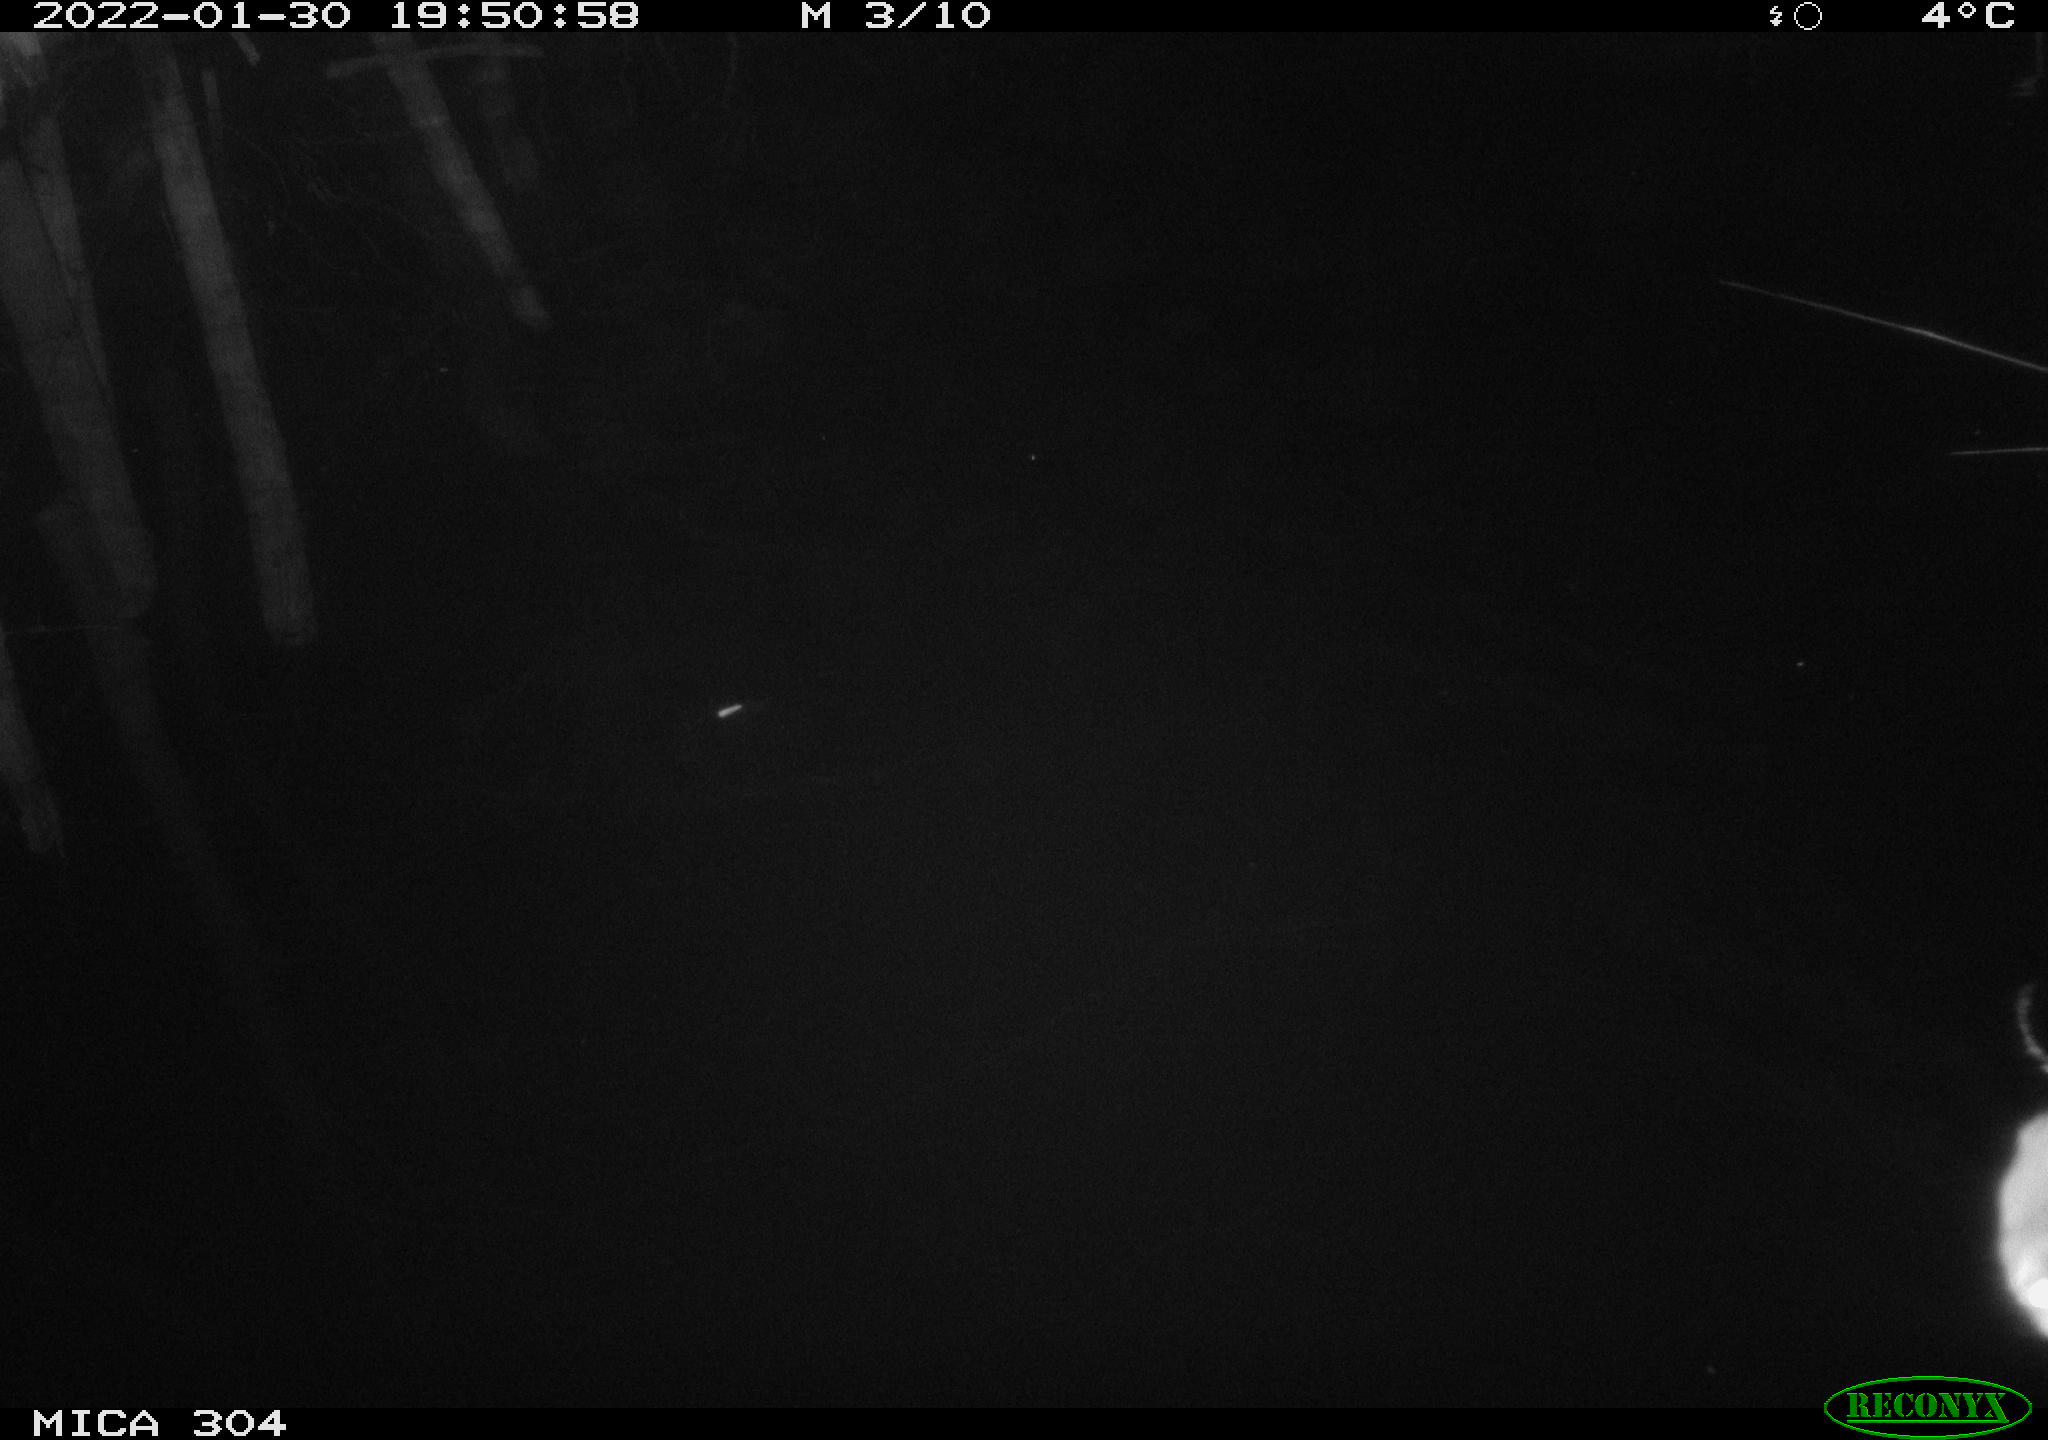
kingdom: Animalia
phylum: Chordata
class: Mammalia
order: Rodentia
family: Muridae
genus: Rattus
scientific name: Rattus norvegicus
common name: Brown rat
